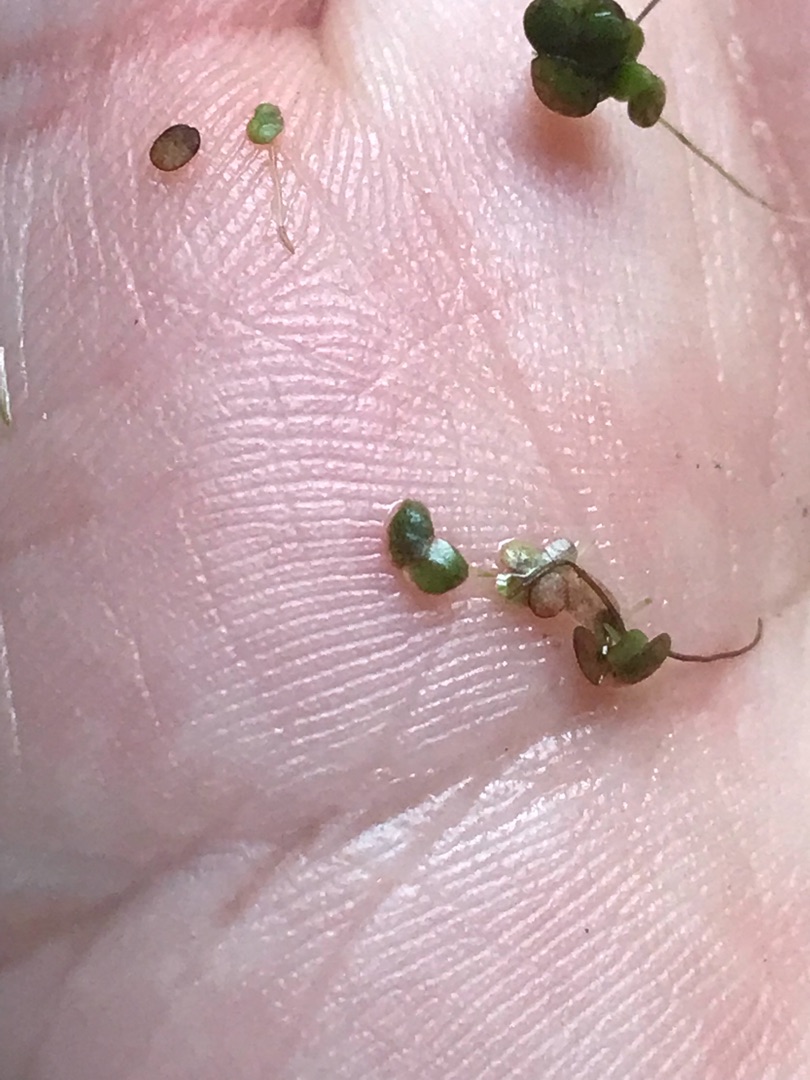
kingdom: Plantae
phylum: Tracheophyta
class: Liliopsida
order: Alismatales
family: Araceae
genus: Lemna
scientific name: Lemna minor
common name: Liden andemad
